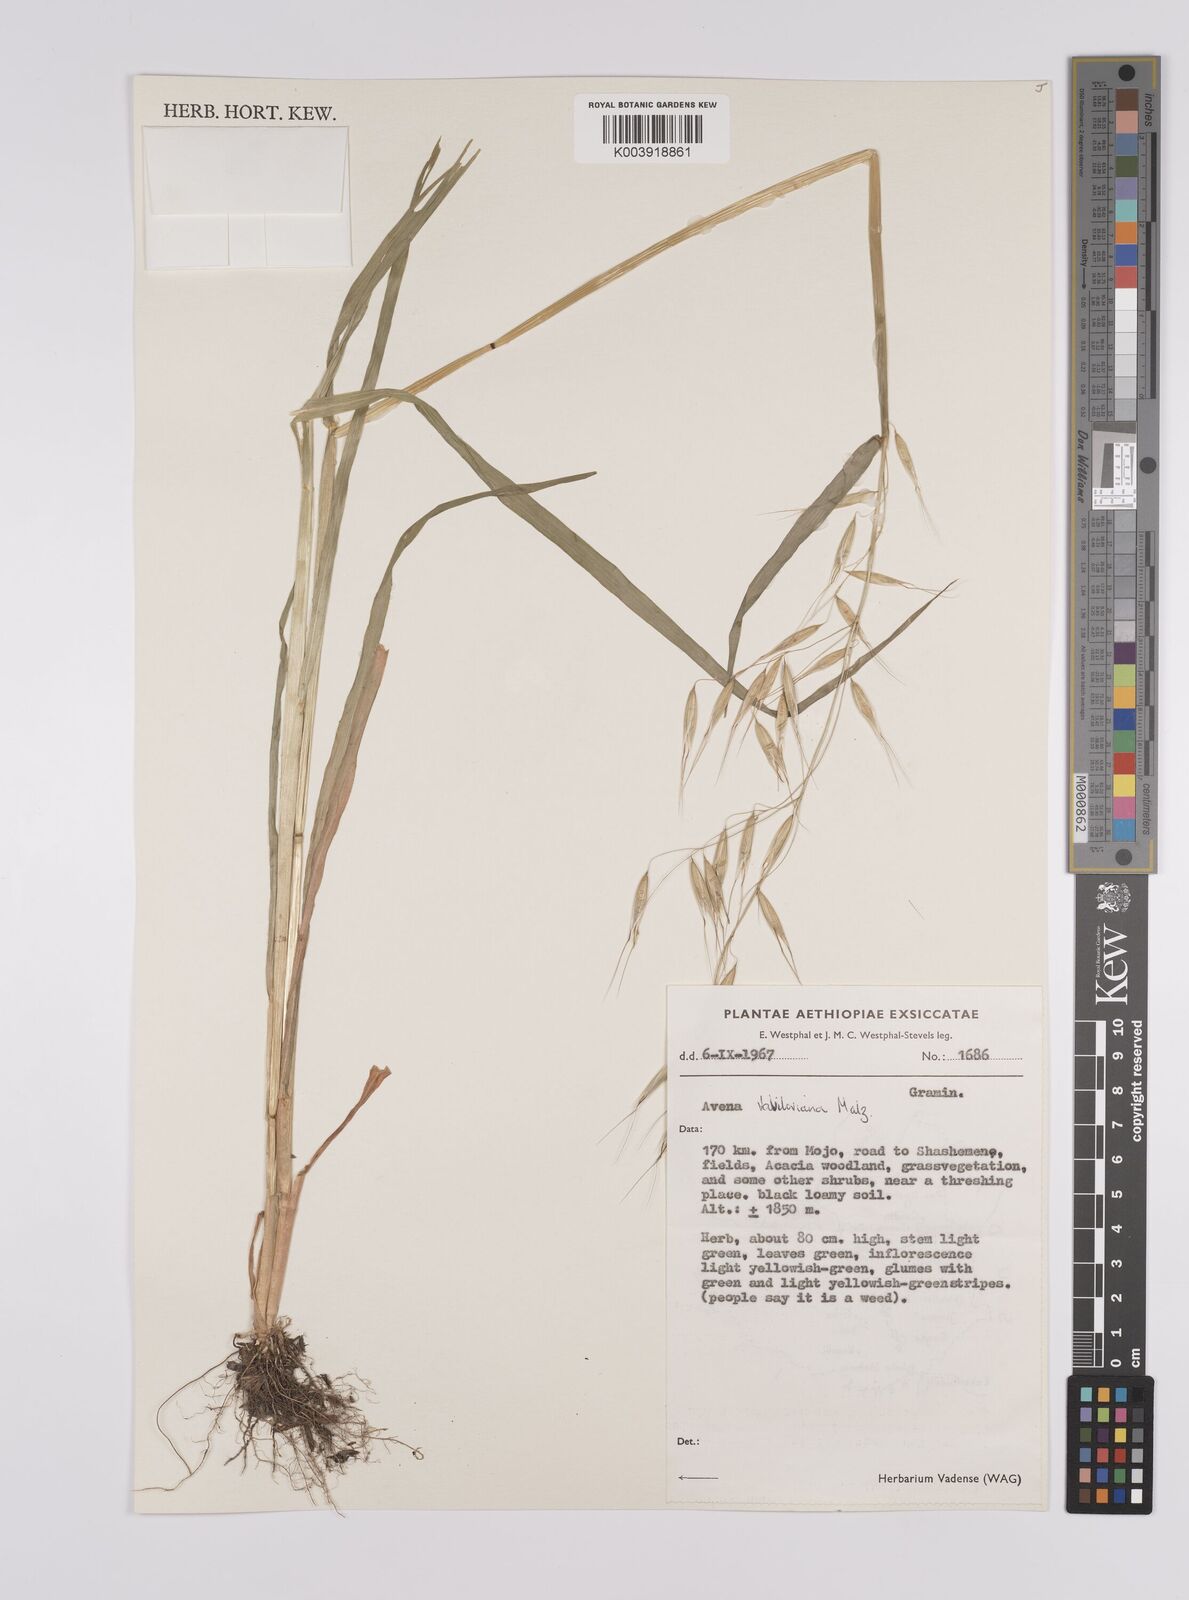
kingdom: Plantae
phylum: Tracheophyta
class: Liliopsida
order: Poales
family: Poaceae
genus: Avena
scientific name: Avena vaviloviana
